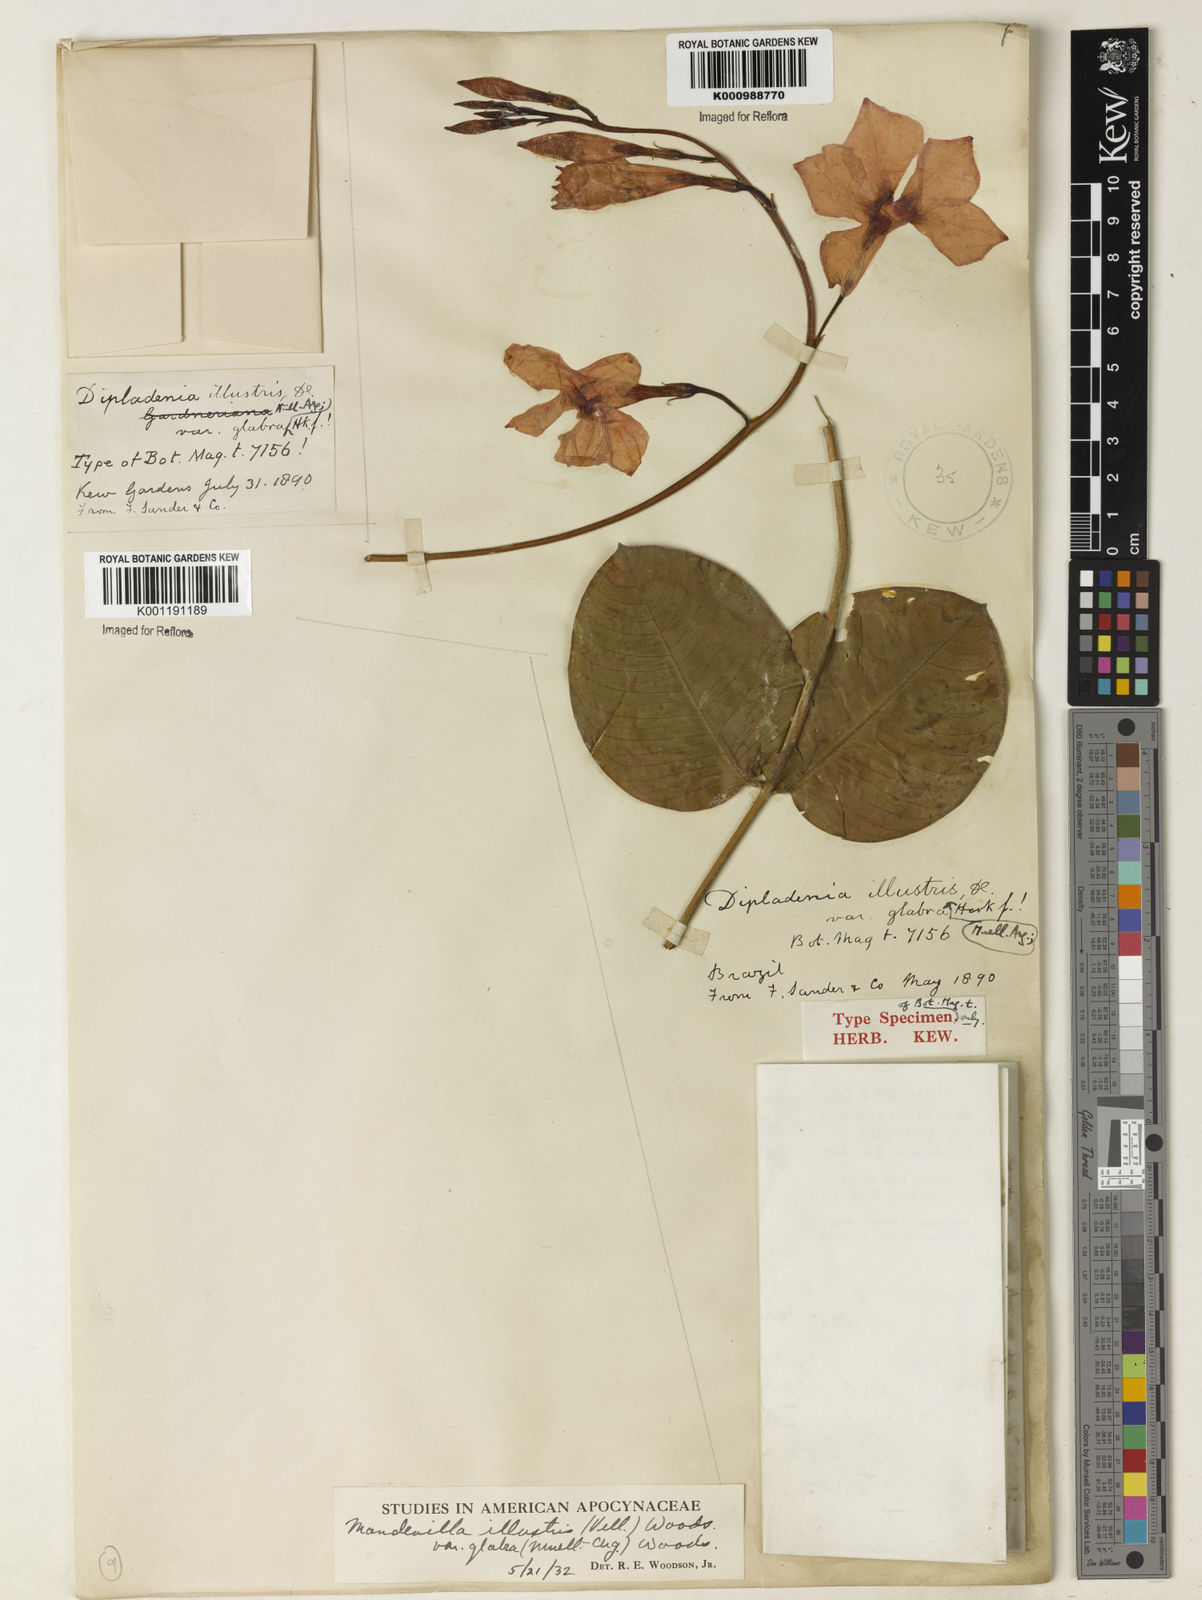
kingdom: Plantae
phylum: Tracheophyta
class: Magnoliopsida
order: Gentianales
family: Apocynaceae
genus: Mandevilla
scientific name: Mandevilla illustris
